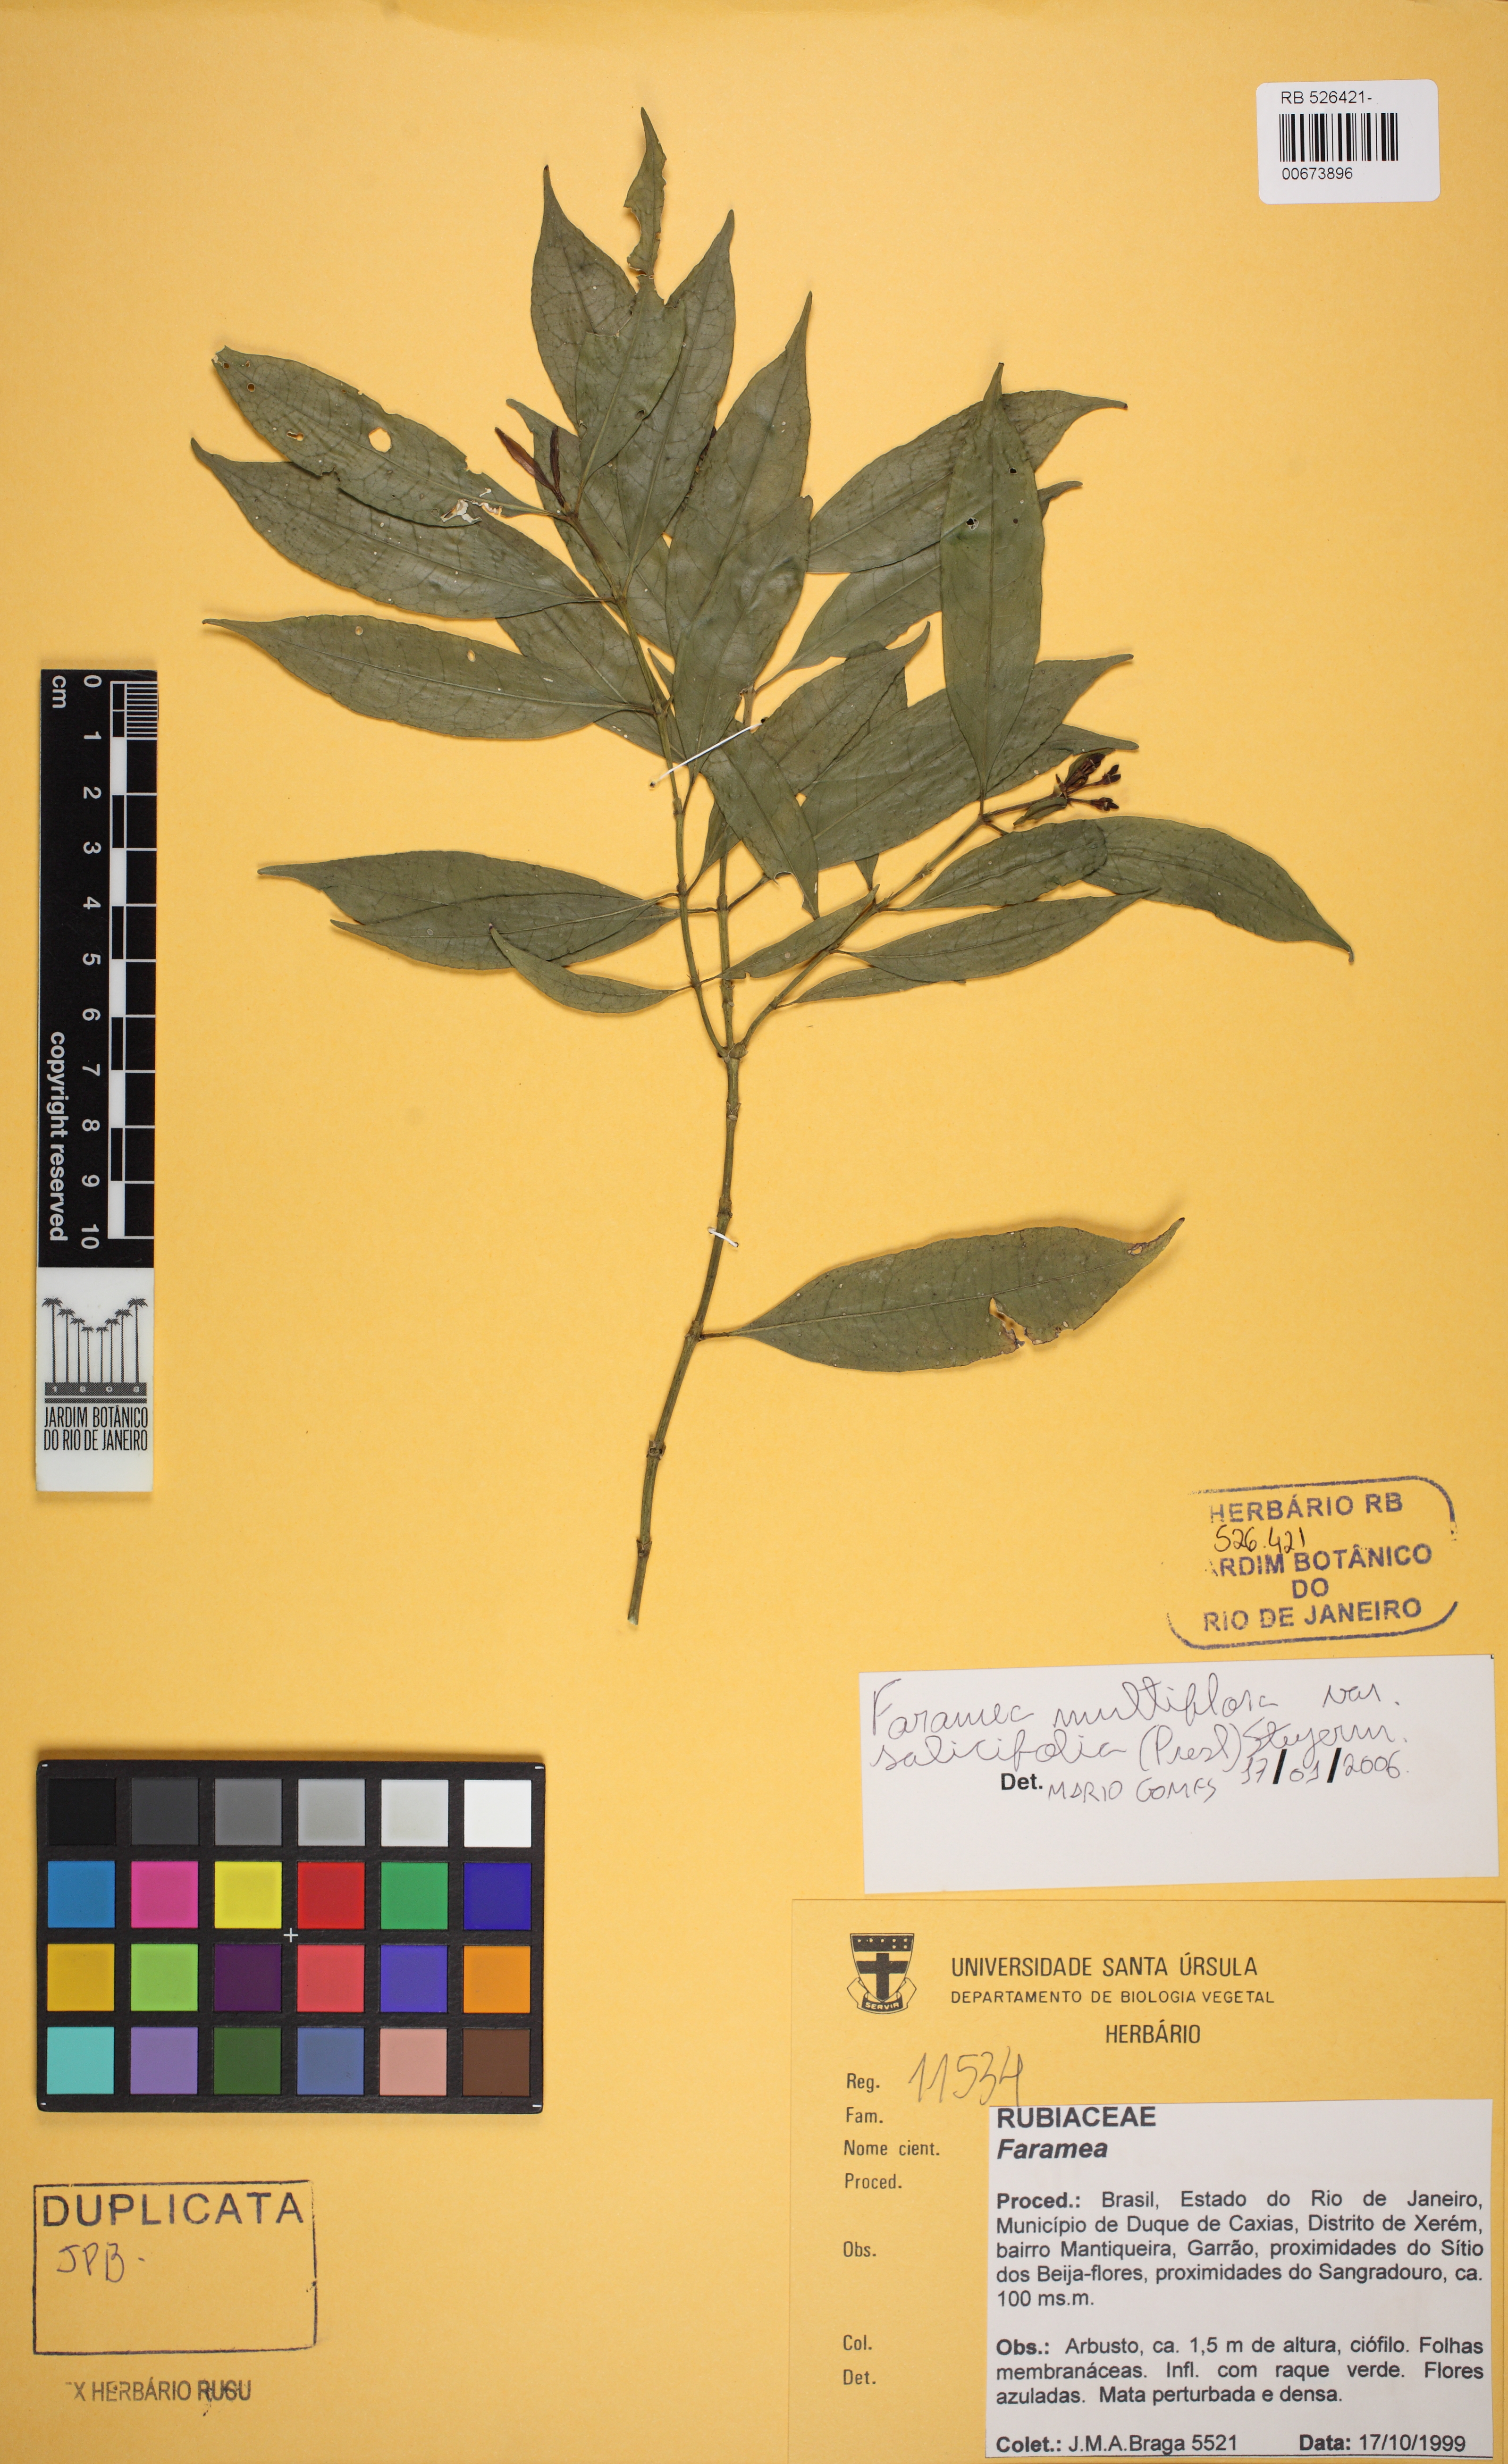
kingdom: Plantae
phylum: Tracheophyta
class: Magnoliopsida
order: Gentianales
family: Rubiaceae
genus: Faramea
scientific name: Faramea multiflora
